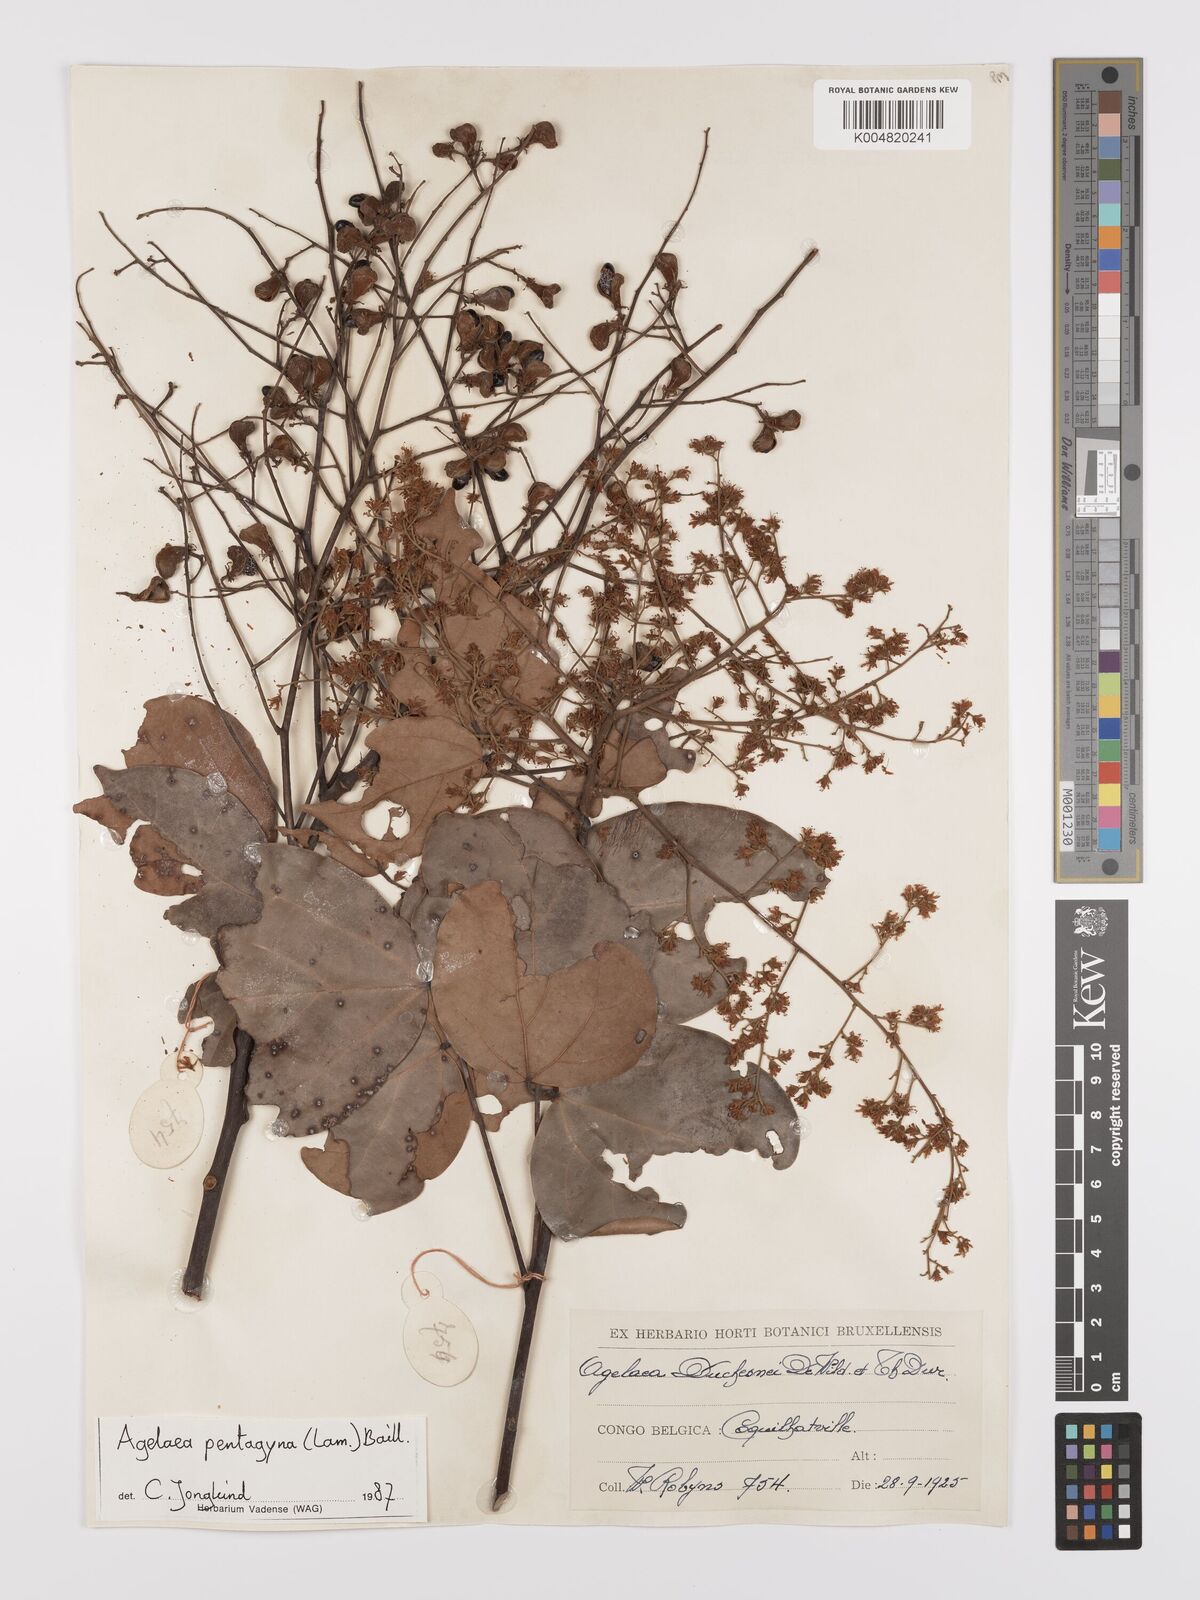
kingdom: Plantae
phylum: Tracheophyta
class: Magnoliopsida
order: Oxalidales
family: Connaraceae
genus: Agelaea
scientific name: Agelaea pentagyna
